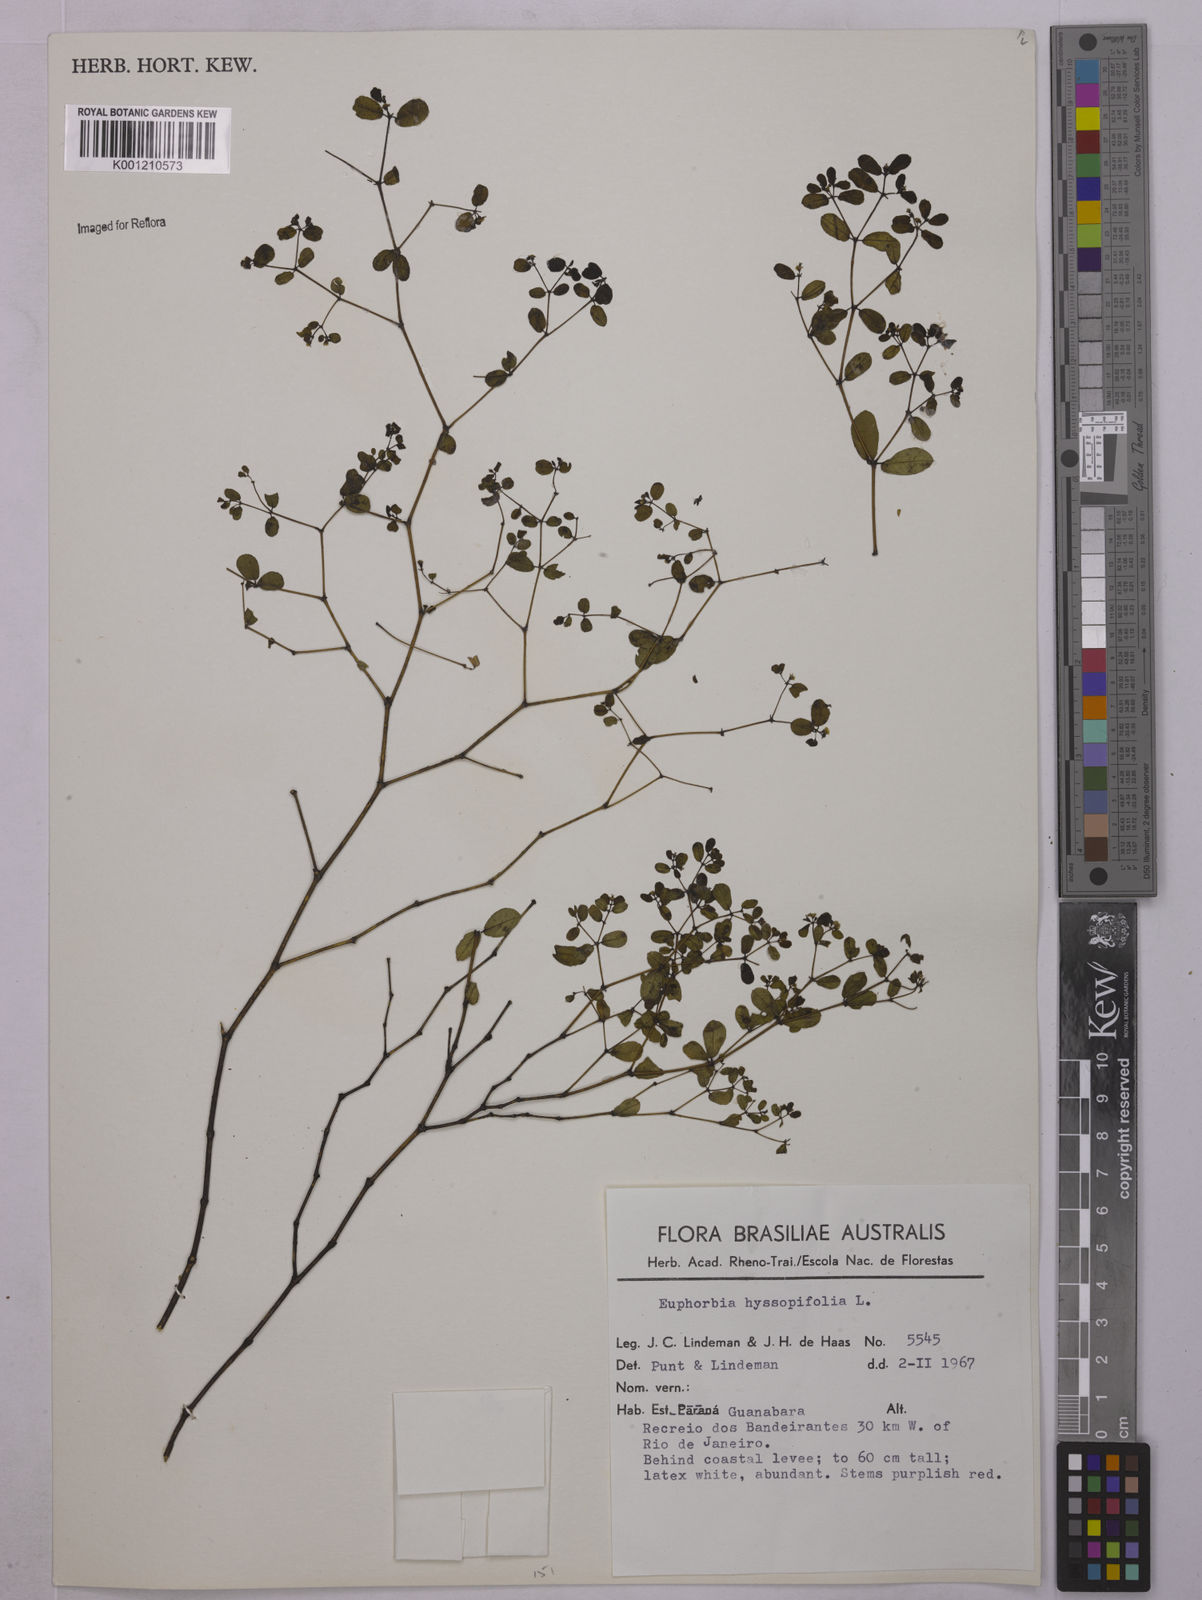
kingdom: Plantae
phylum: Tracheophyta
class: Magnoliopsida
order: Malpighiales
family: Euphorbiaceae
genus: Euphorbia
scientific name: Euphorbia hyssopifolia
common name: Hyssopleaf sandmat
